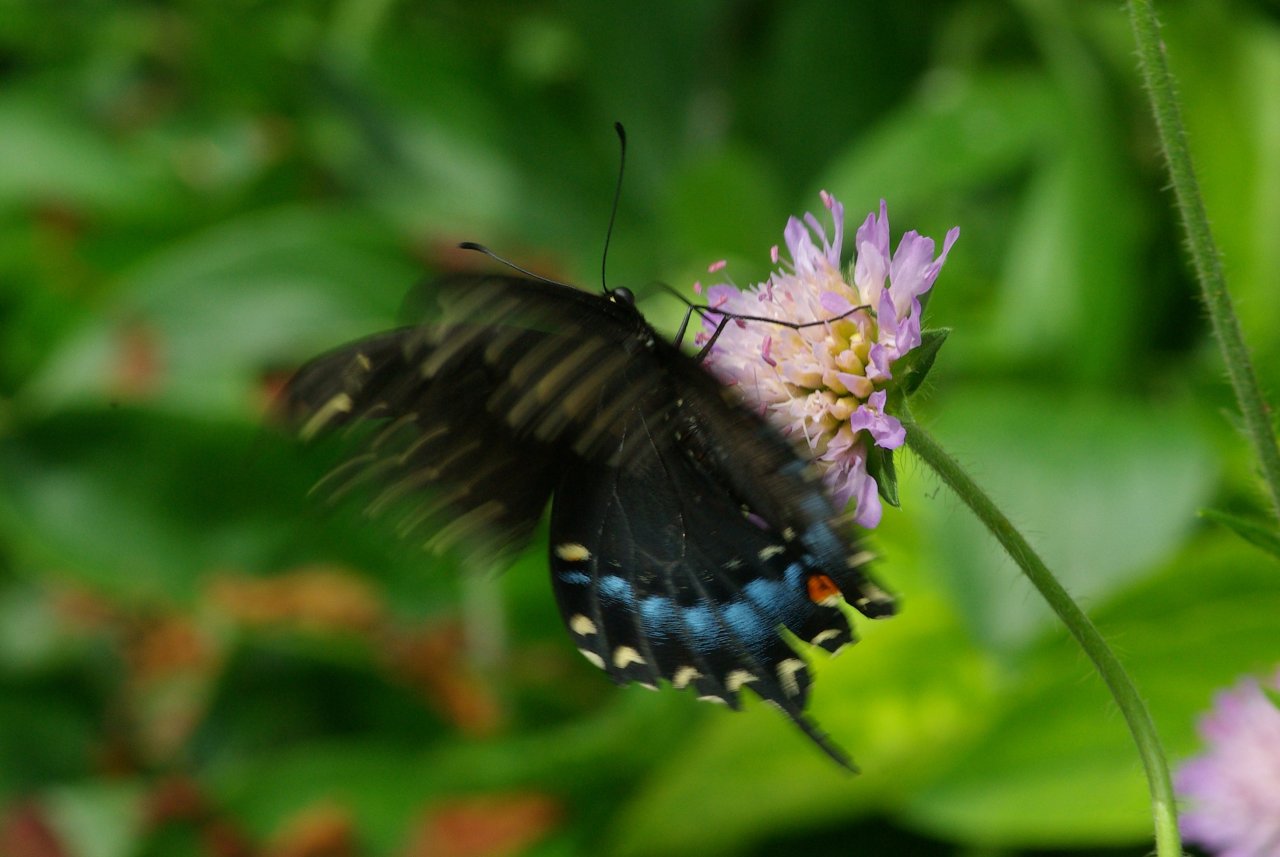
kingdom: Animalia
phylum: Arthropoda
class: Insecta
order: Lepidoptera
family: Papilionidae
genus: Papilio
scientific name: Papilio polyxenes
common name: Black Swallowtail
